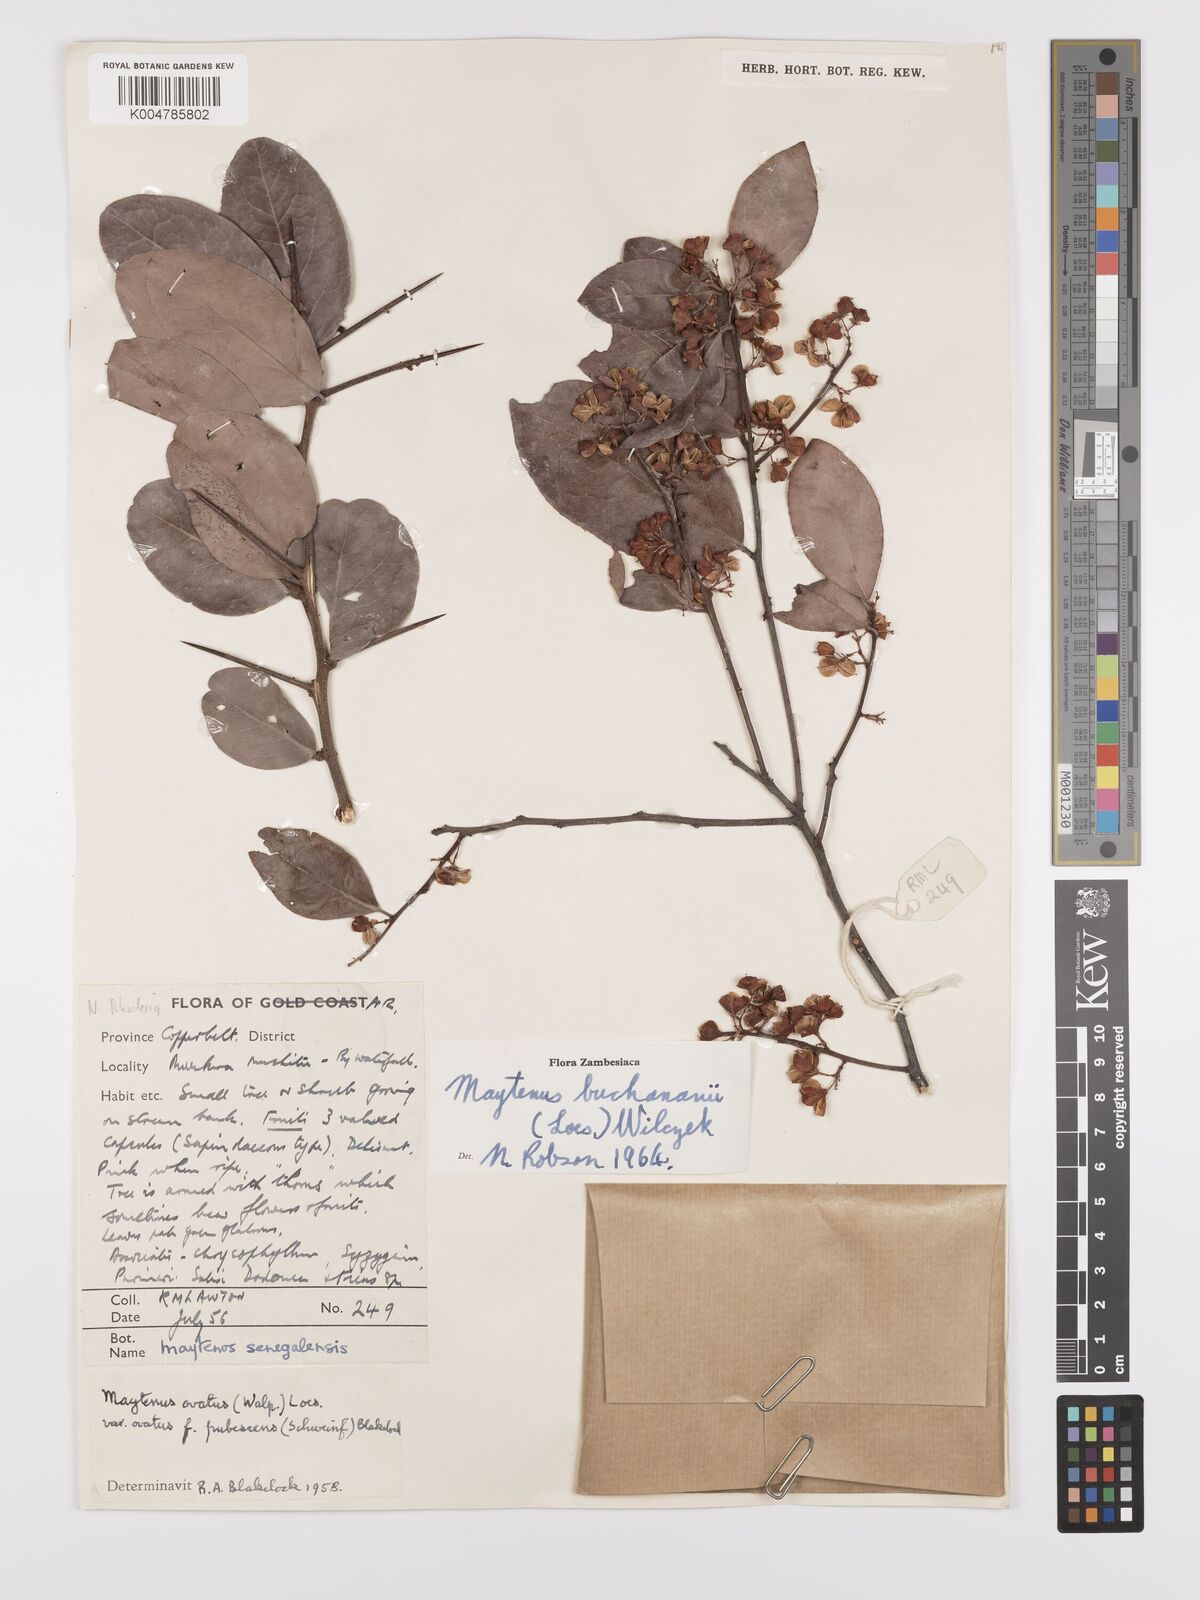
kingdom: Plantae
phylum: Tracheophyta
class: Magnoliopsida
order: Celastrales
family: Celastraceae
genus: Gymnosporia
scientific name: Gymnosporia buchananii
